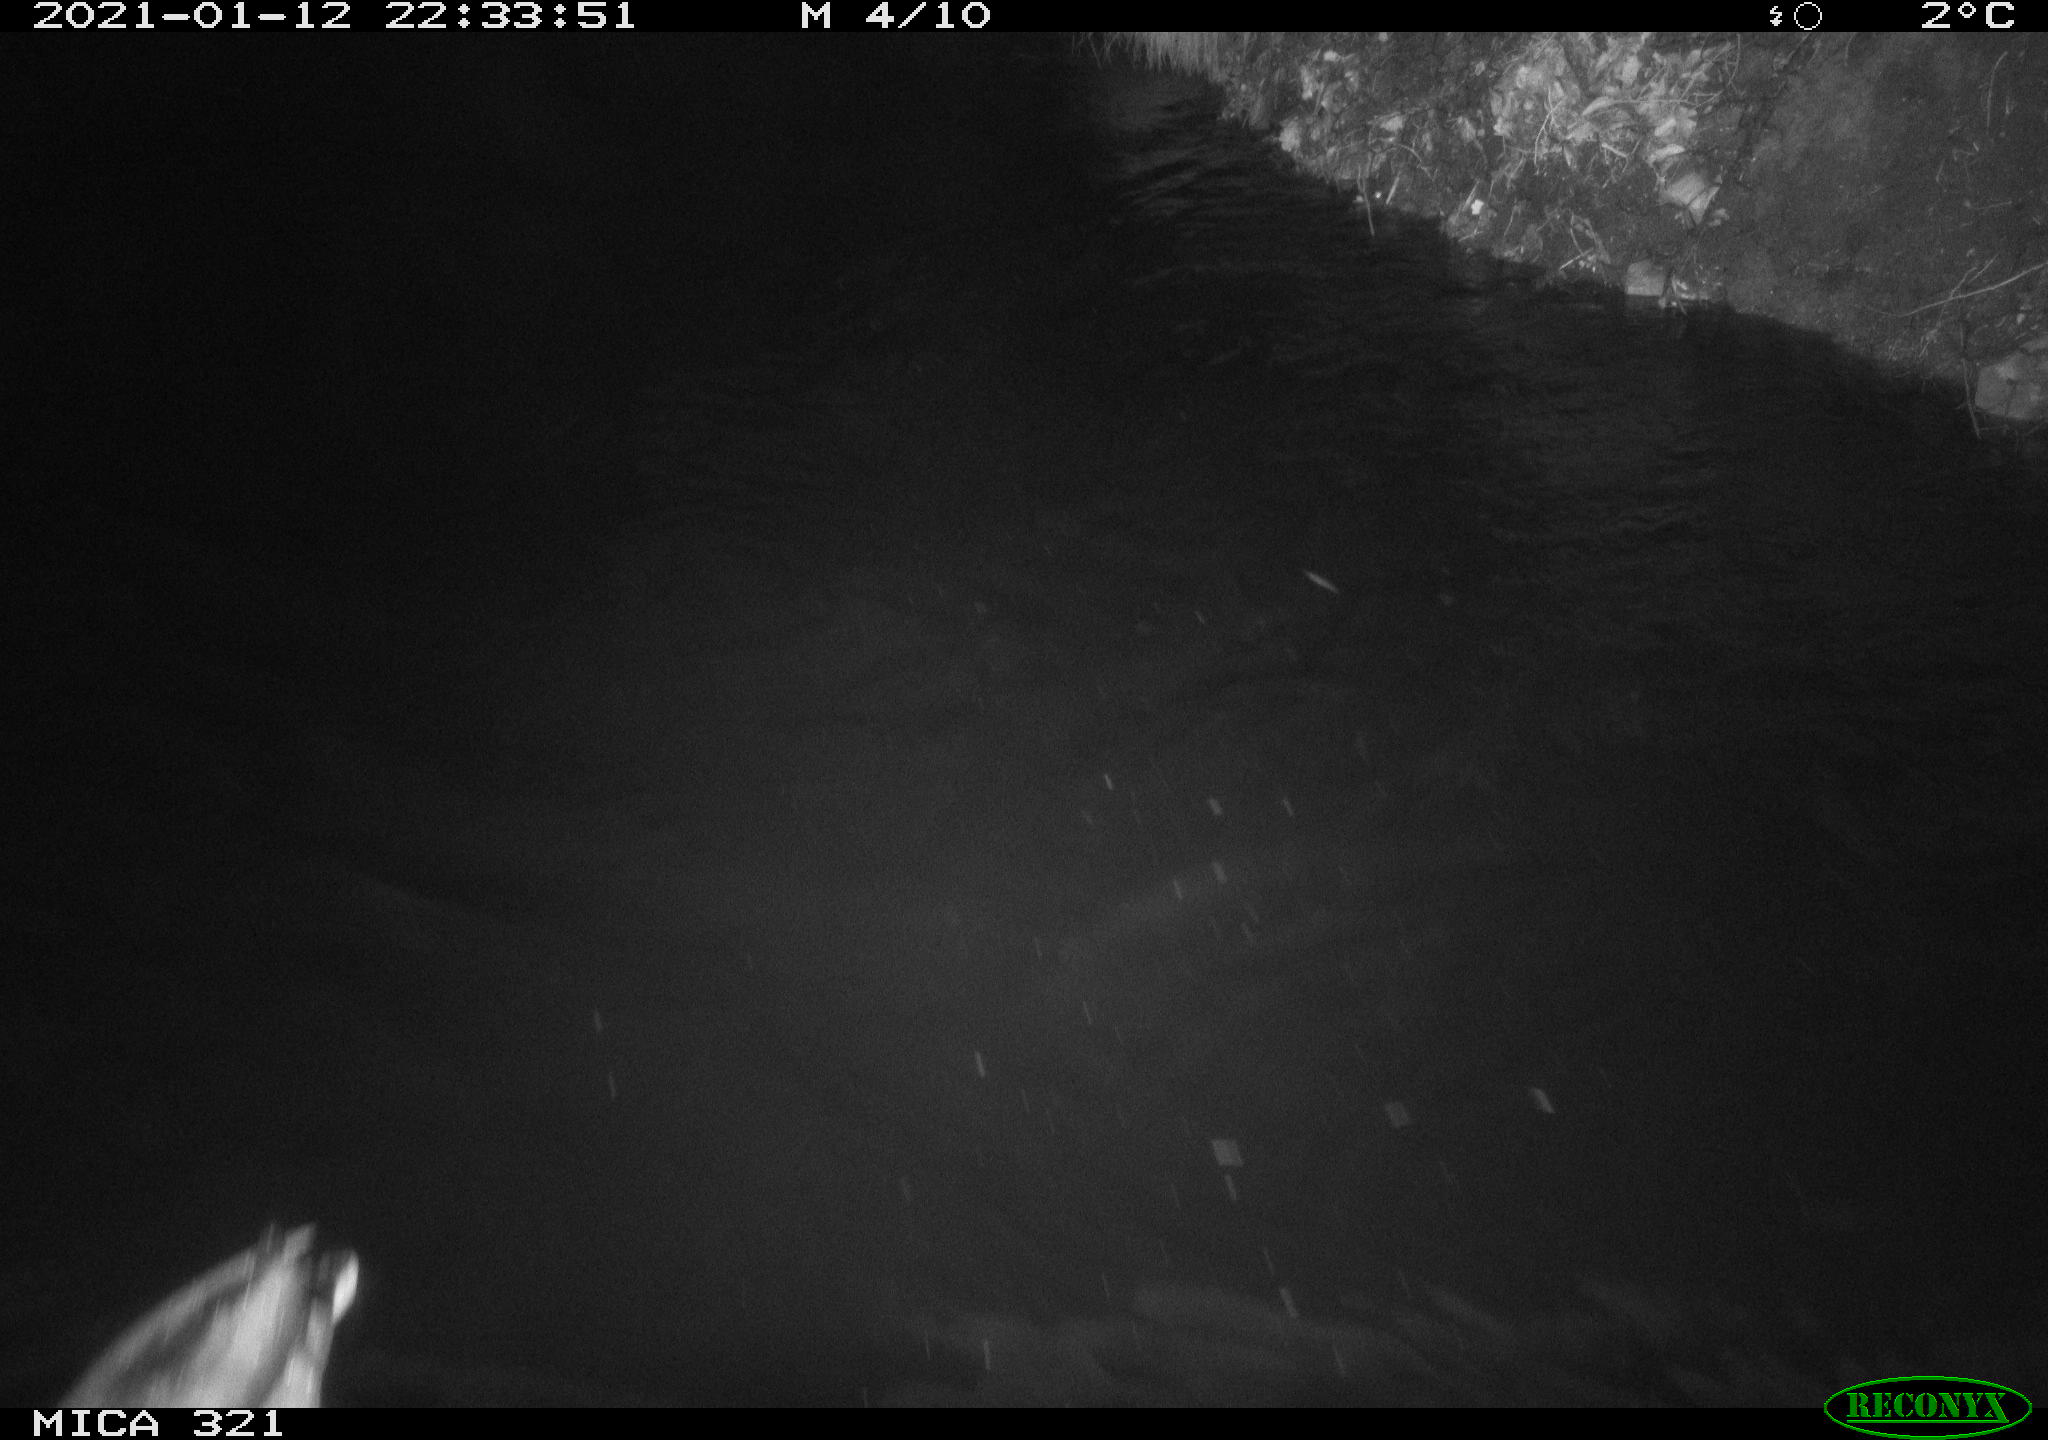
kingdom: Animalia
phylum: Chordata
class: Aves
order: Anseriformes
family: Anatidae
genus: Anas
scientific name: Anas platyrhynchos
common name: Mallard
